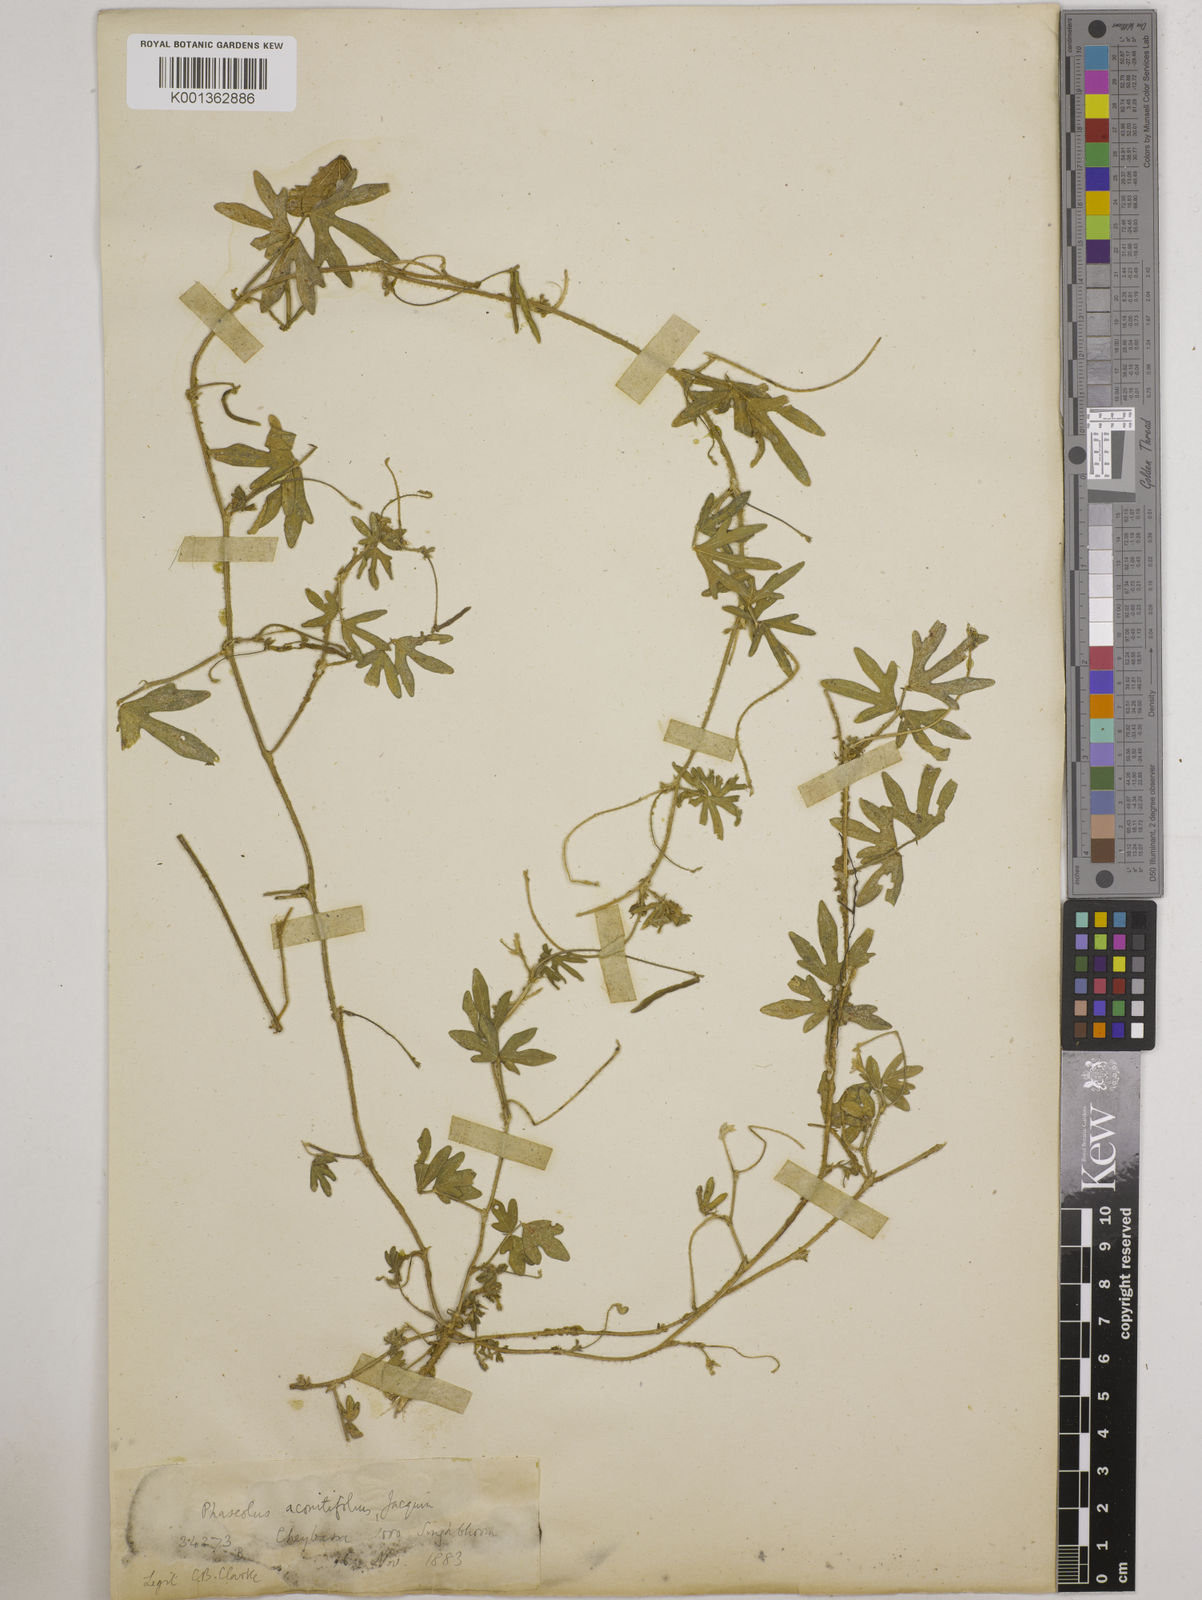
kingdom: Plantae
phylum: Tracheophyta
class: Magnoliopsida
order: Fabales
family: Fabaceae
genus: Vigna
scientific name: Vigna aconitifolia
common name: Dew bean
